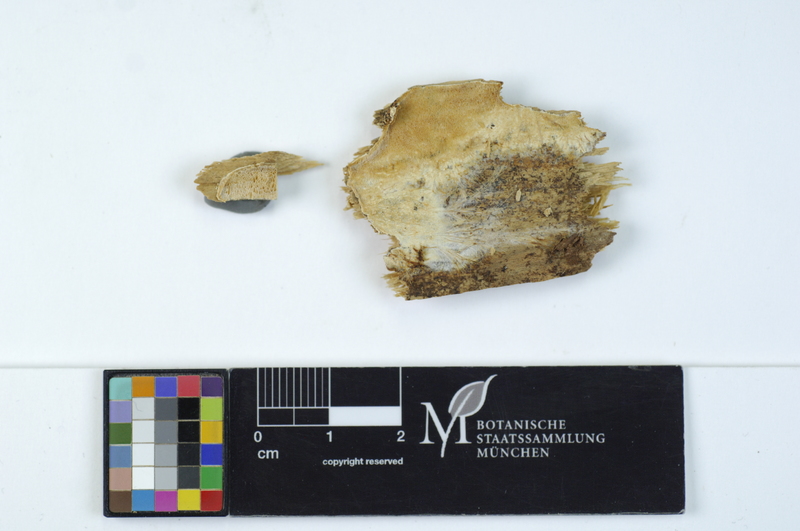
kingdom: Fungi
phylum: Basidiomycota
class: Agaricomycetes
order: Polyporales
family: Incrustoporiaceae
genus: Skeletocutis
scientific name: Skeletocutis kuehneri
